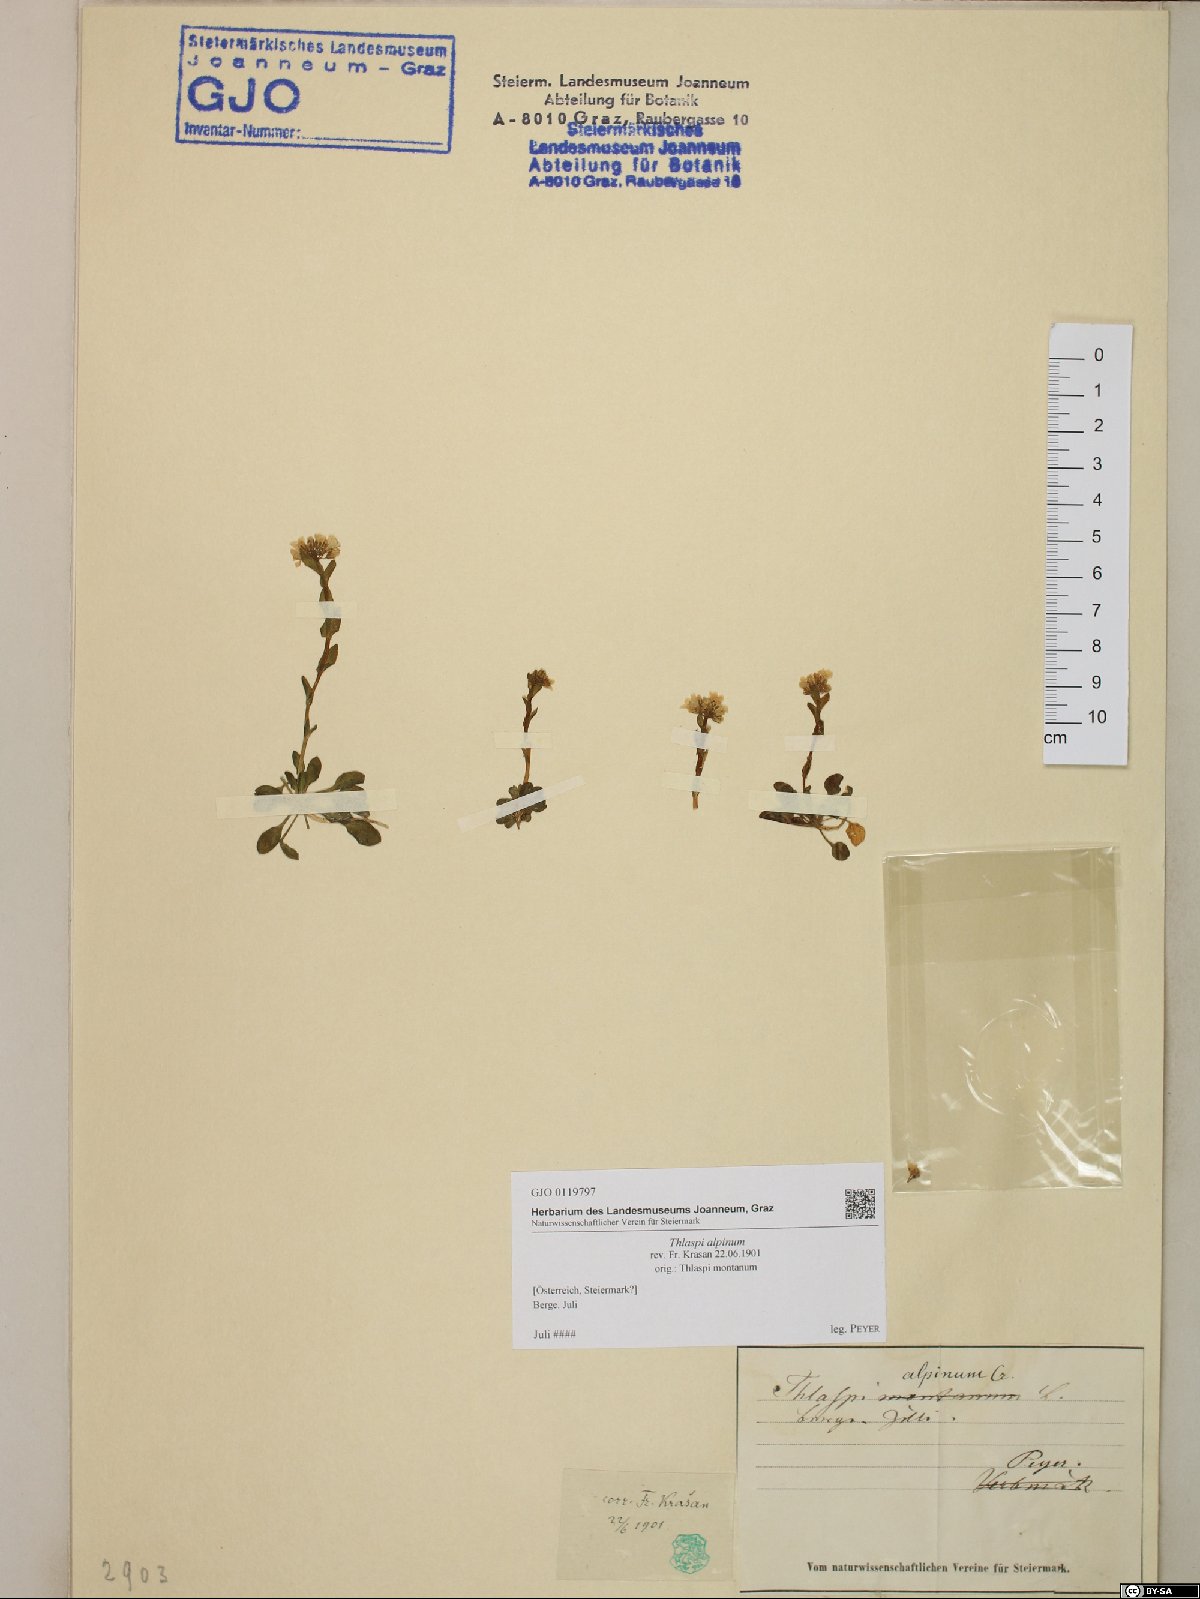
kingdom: Plantae
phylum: Tracheophyta
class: Magnoliopsida
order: Brassicales
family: Brassicaceae
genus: Noccaea
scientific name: Noccaea alpestris
